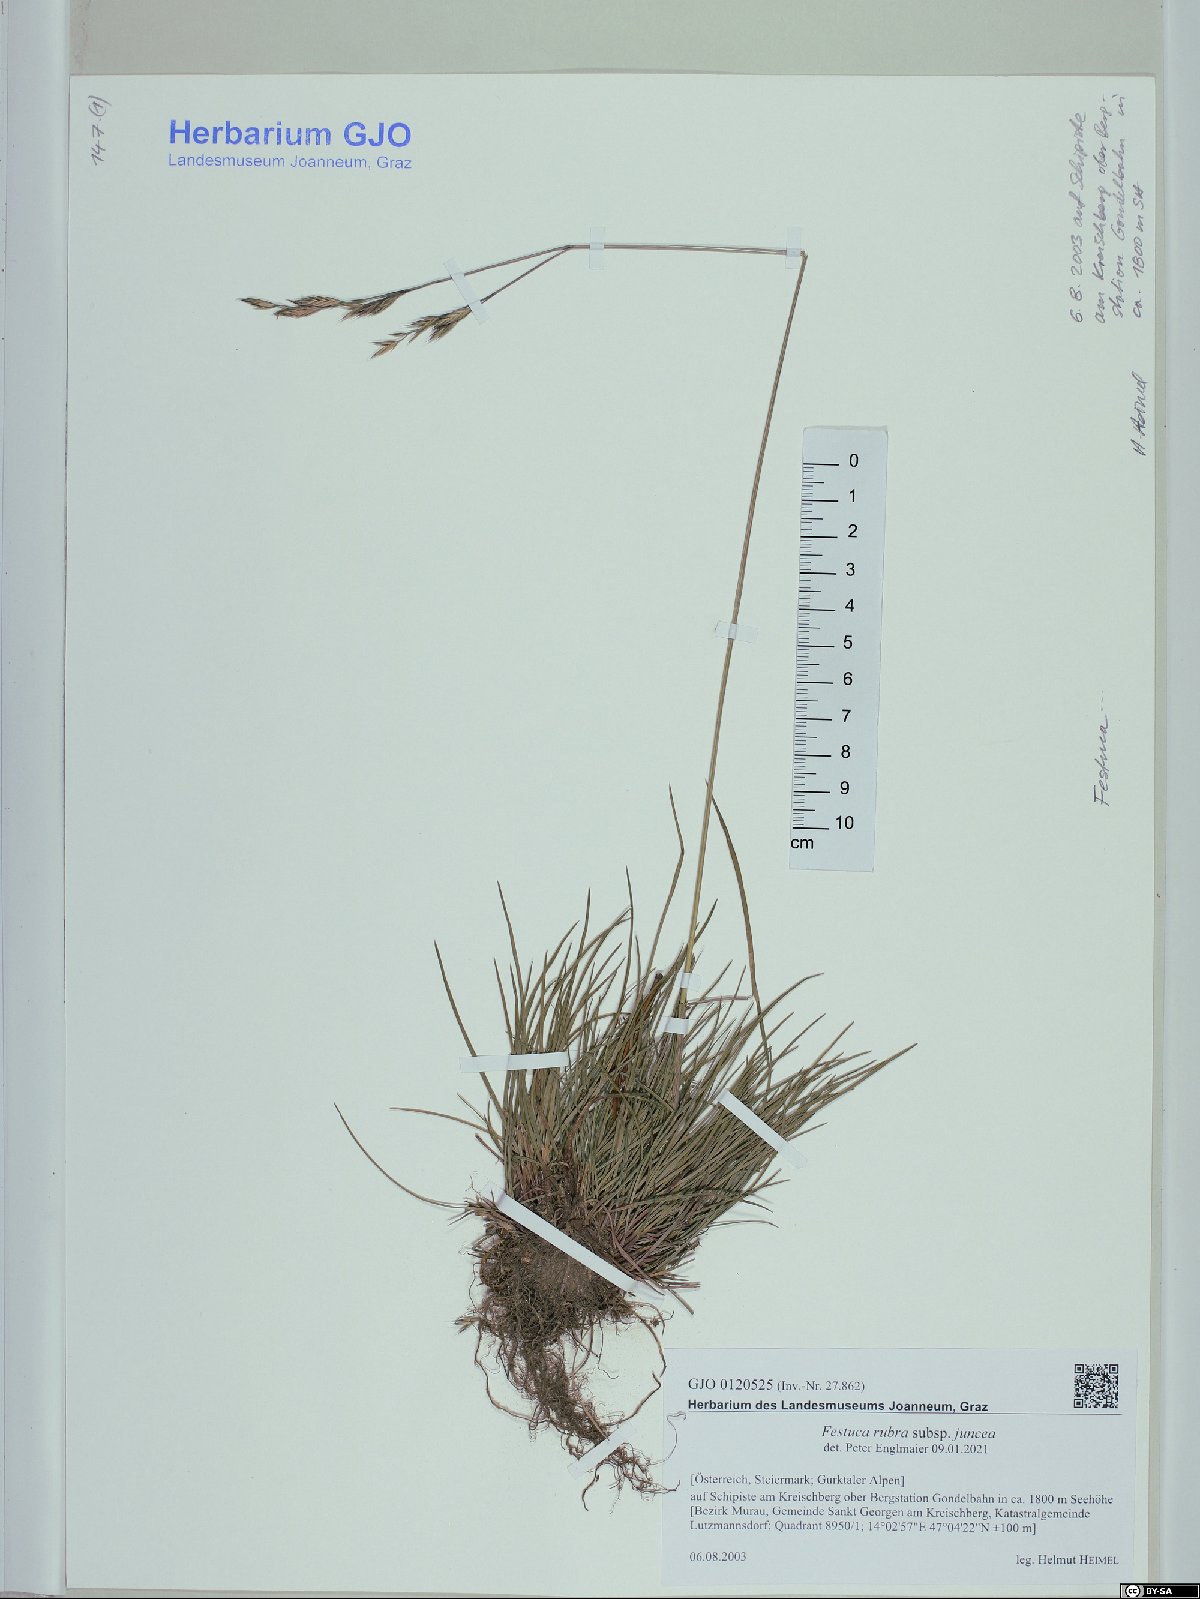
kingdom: Plantae
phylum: Tracheophyta
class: Liliopsida
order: Poales
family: Poaceae
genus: Festuca
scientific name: Festuca rubra
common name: Red fescue
